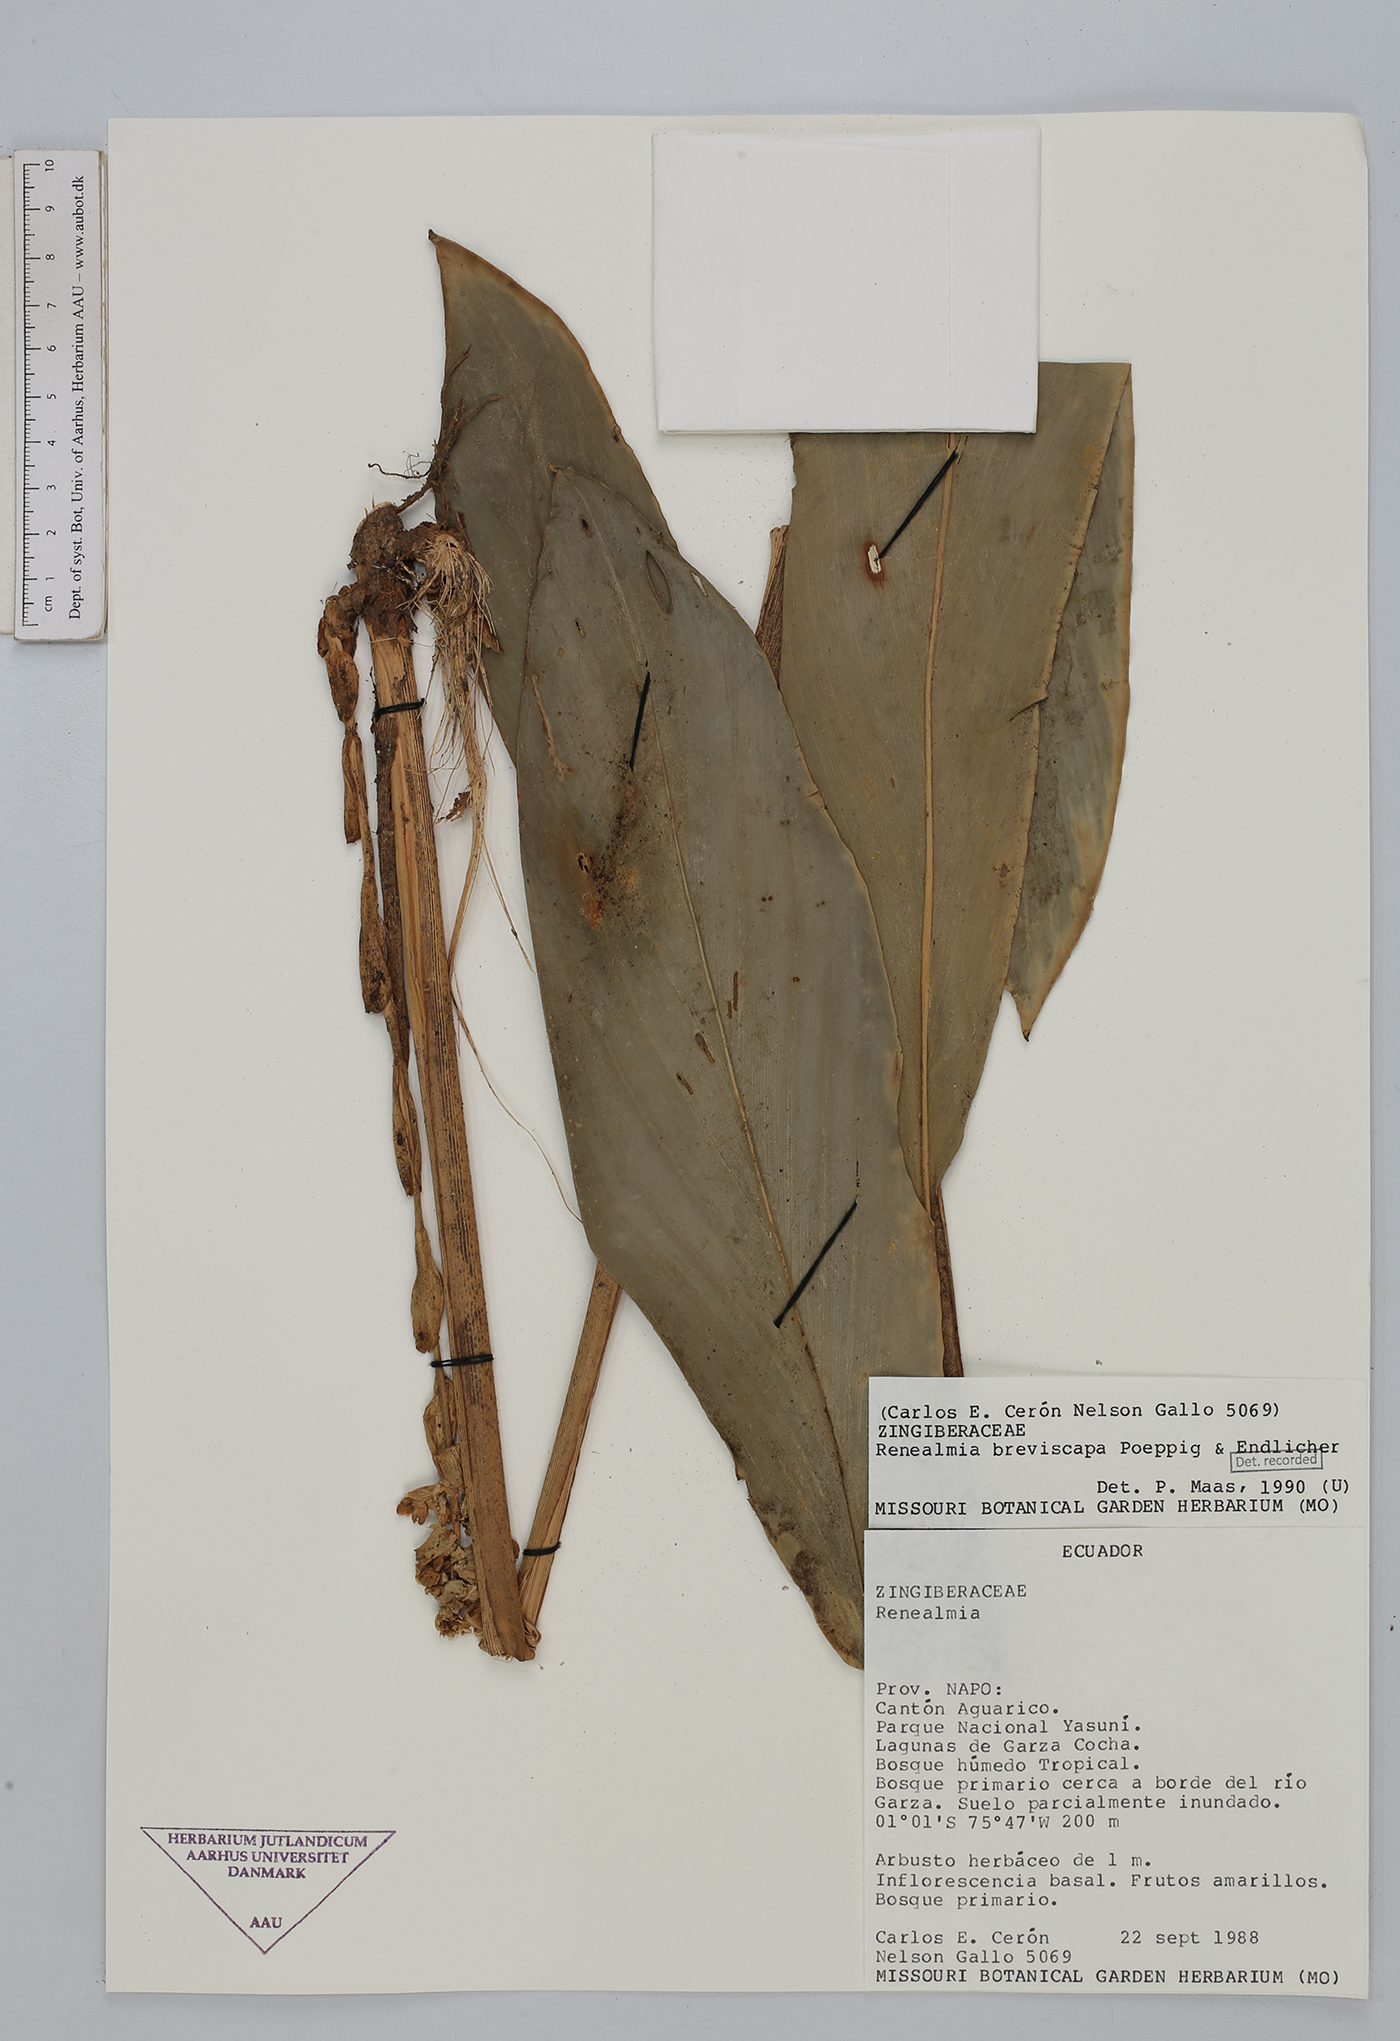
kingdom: Plantae
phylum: Tracheophyta
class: Liliopsida
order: Zingiberales
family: Zingiberaceae
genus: Renealmia
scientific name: Renealmia breviscapa
